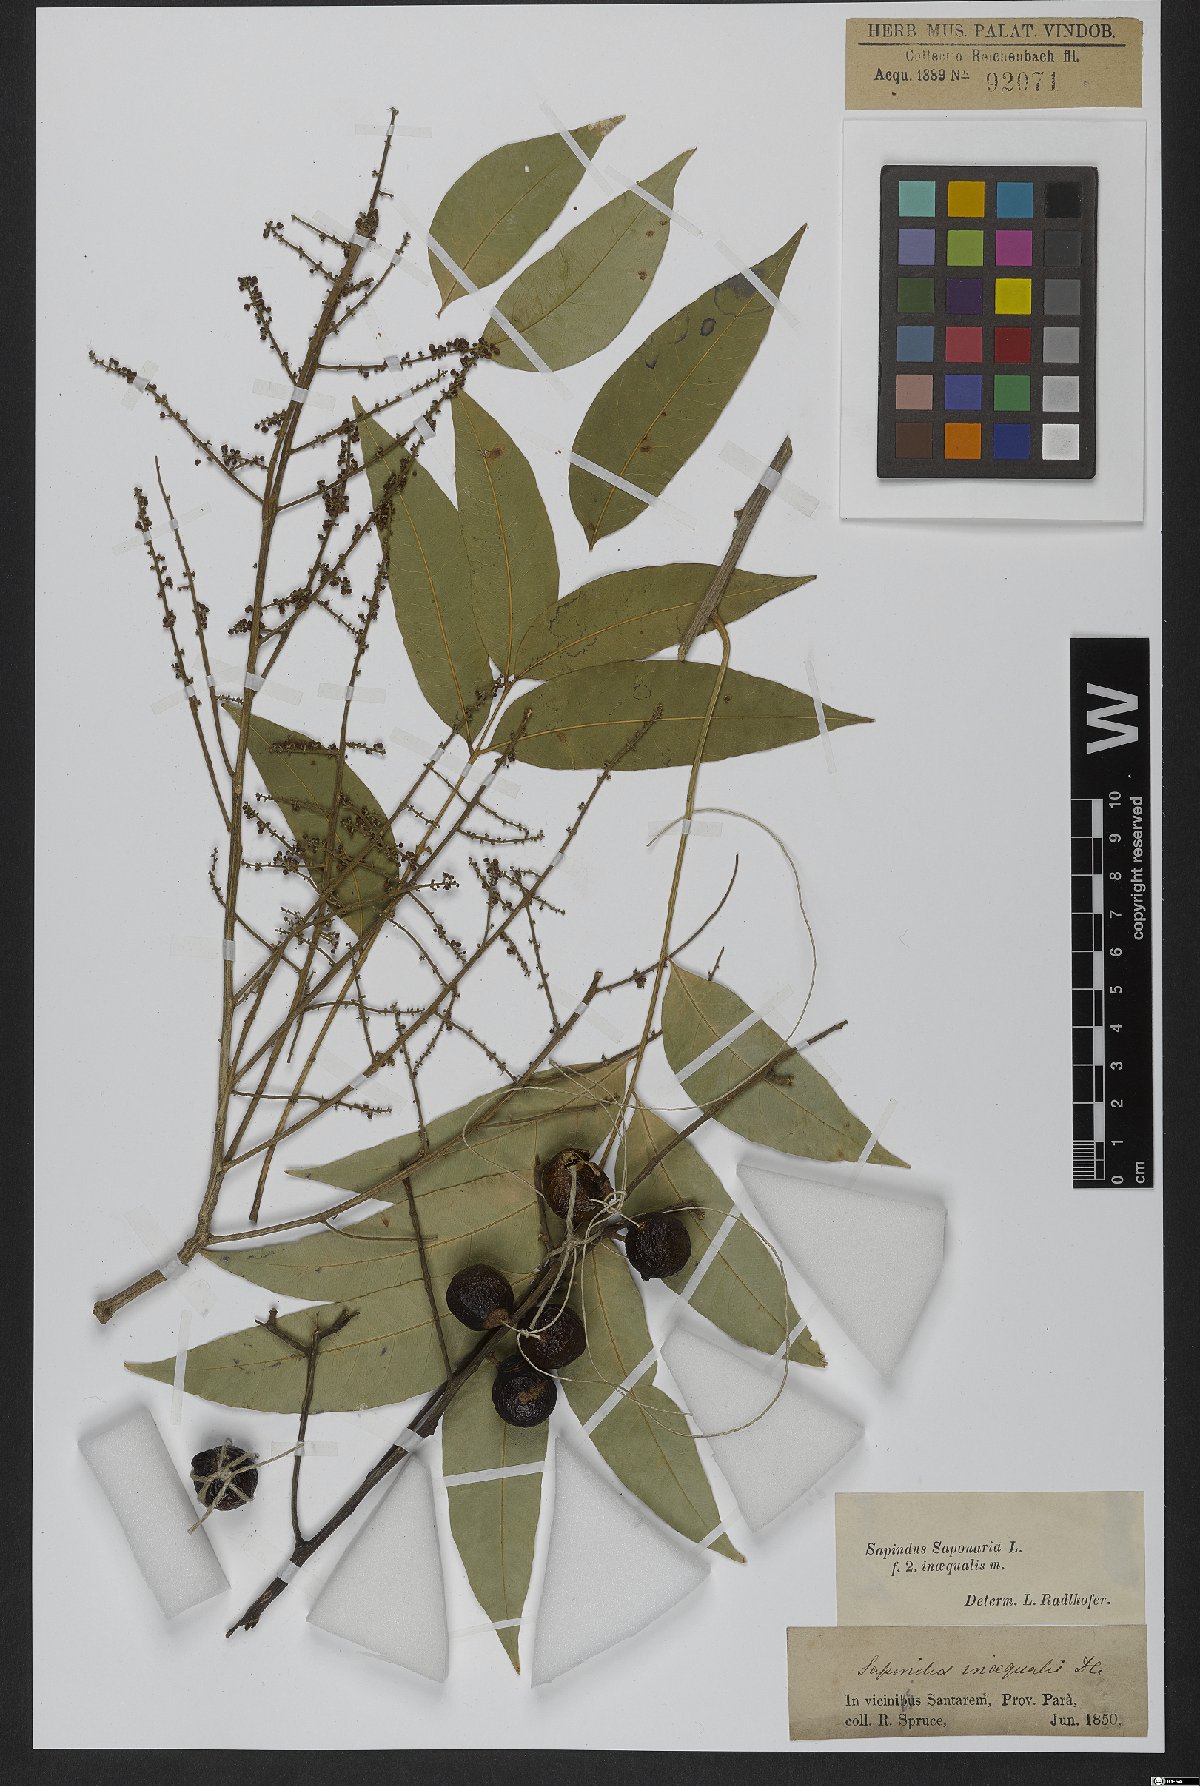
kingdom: Plantae
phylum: Tracheophyta
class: Magnoliopsida
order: Sapindales
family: Sapindaceae
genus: Sapindus
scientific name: Sapindus saponaria
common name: Wingleaf soapberry
